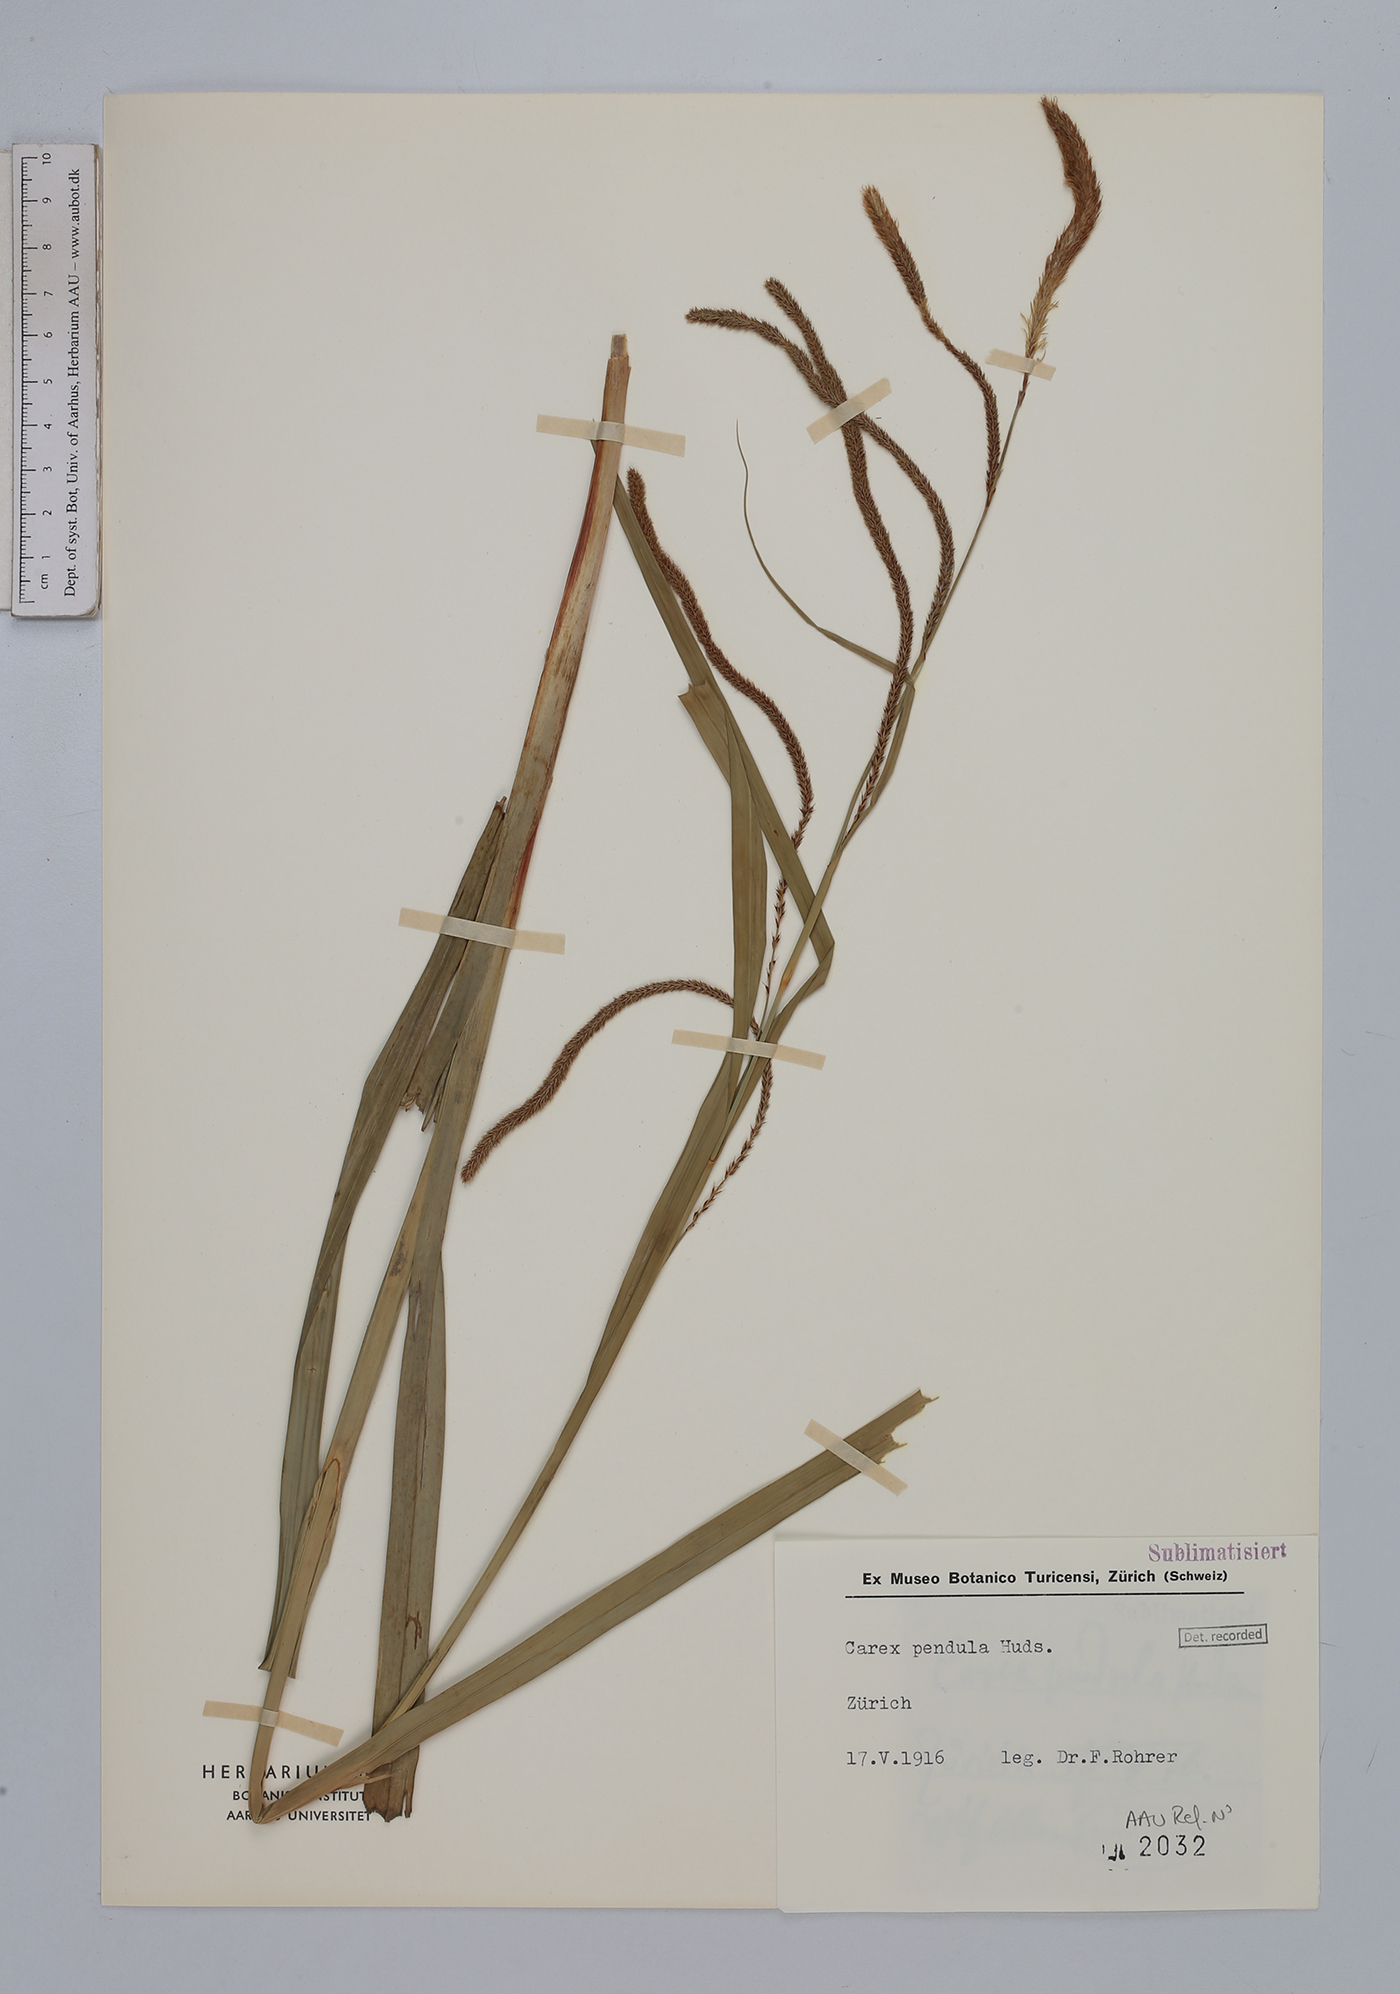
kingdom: Plantae
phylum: Tracheophyta
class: Liliopsida
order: Poales
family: Cyperaceae
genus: Carex
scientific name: Carex pendula
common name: Pendulous sedge
